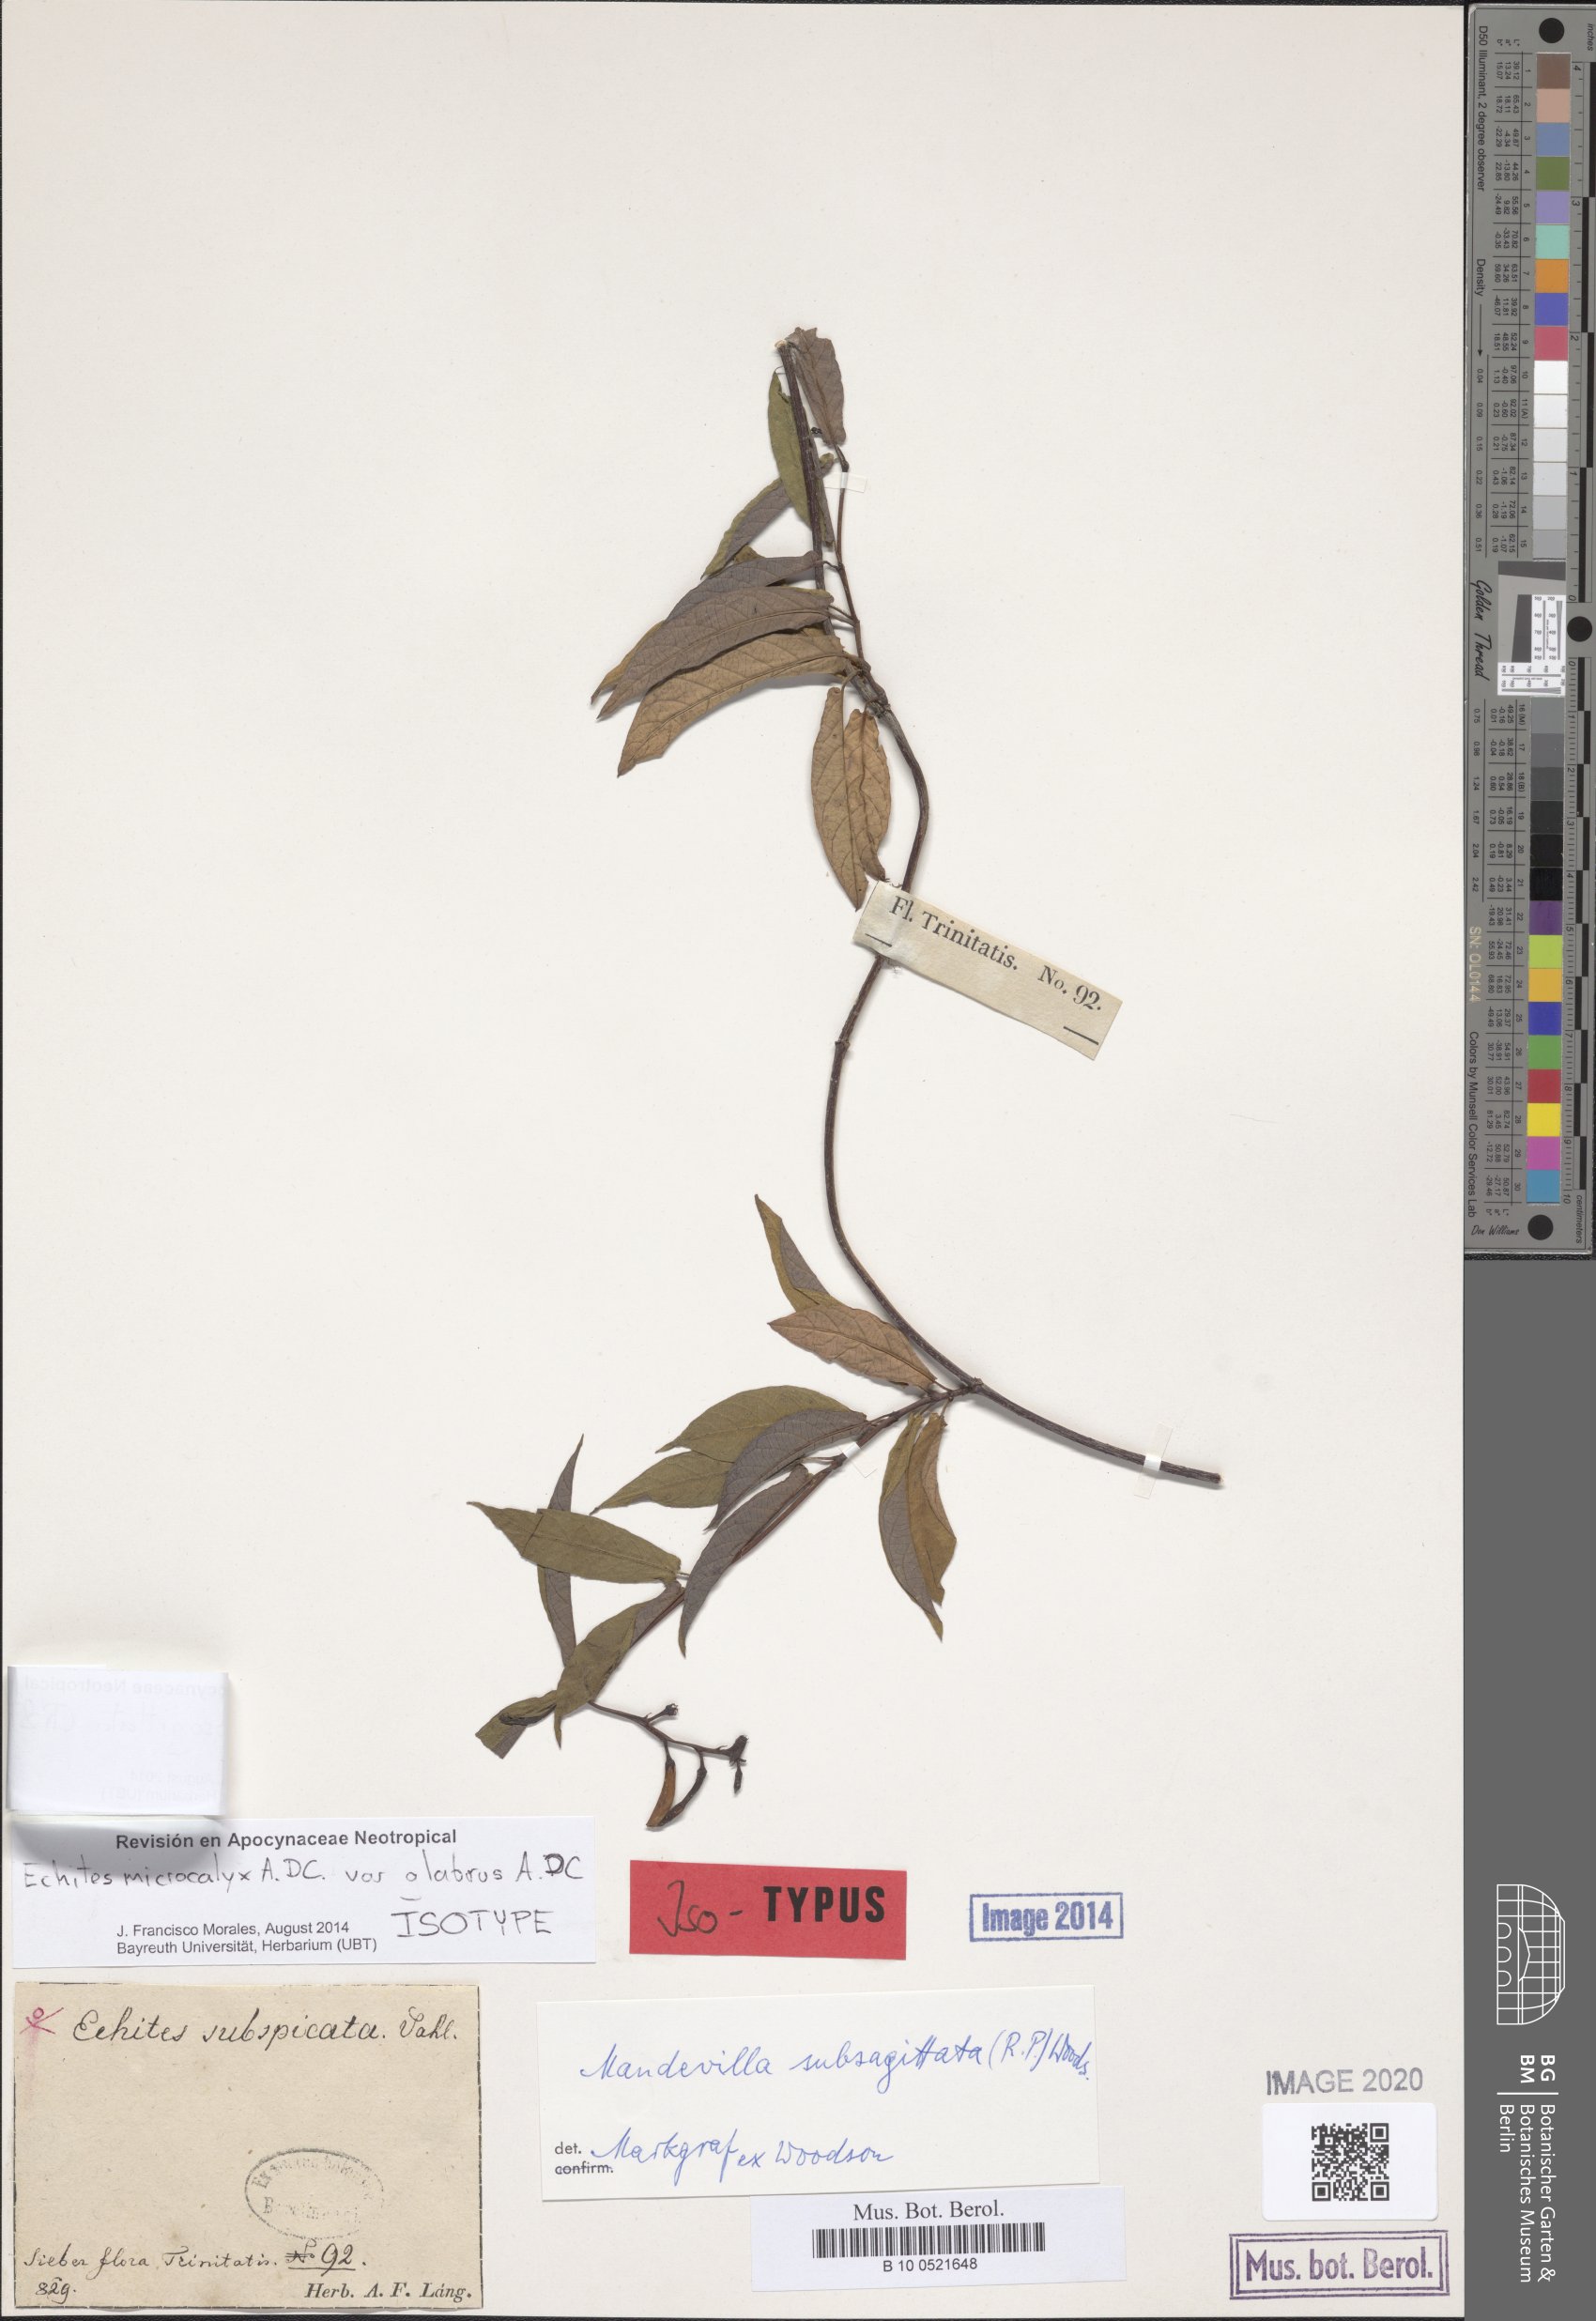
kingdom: Plantae
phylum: Tracheophyta
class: Magnoliopsida
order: Gentianales
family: Apocynaceae
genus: Mandevilla
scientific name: Mandevilla subsagittata
